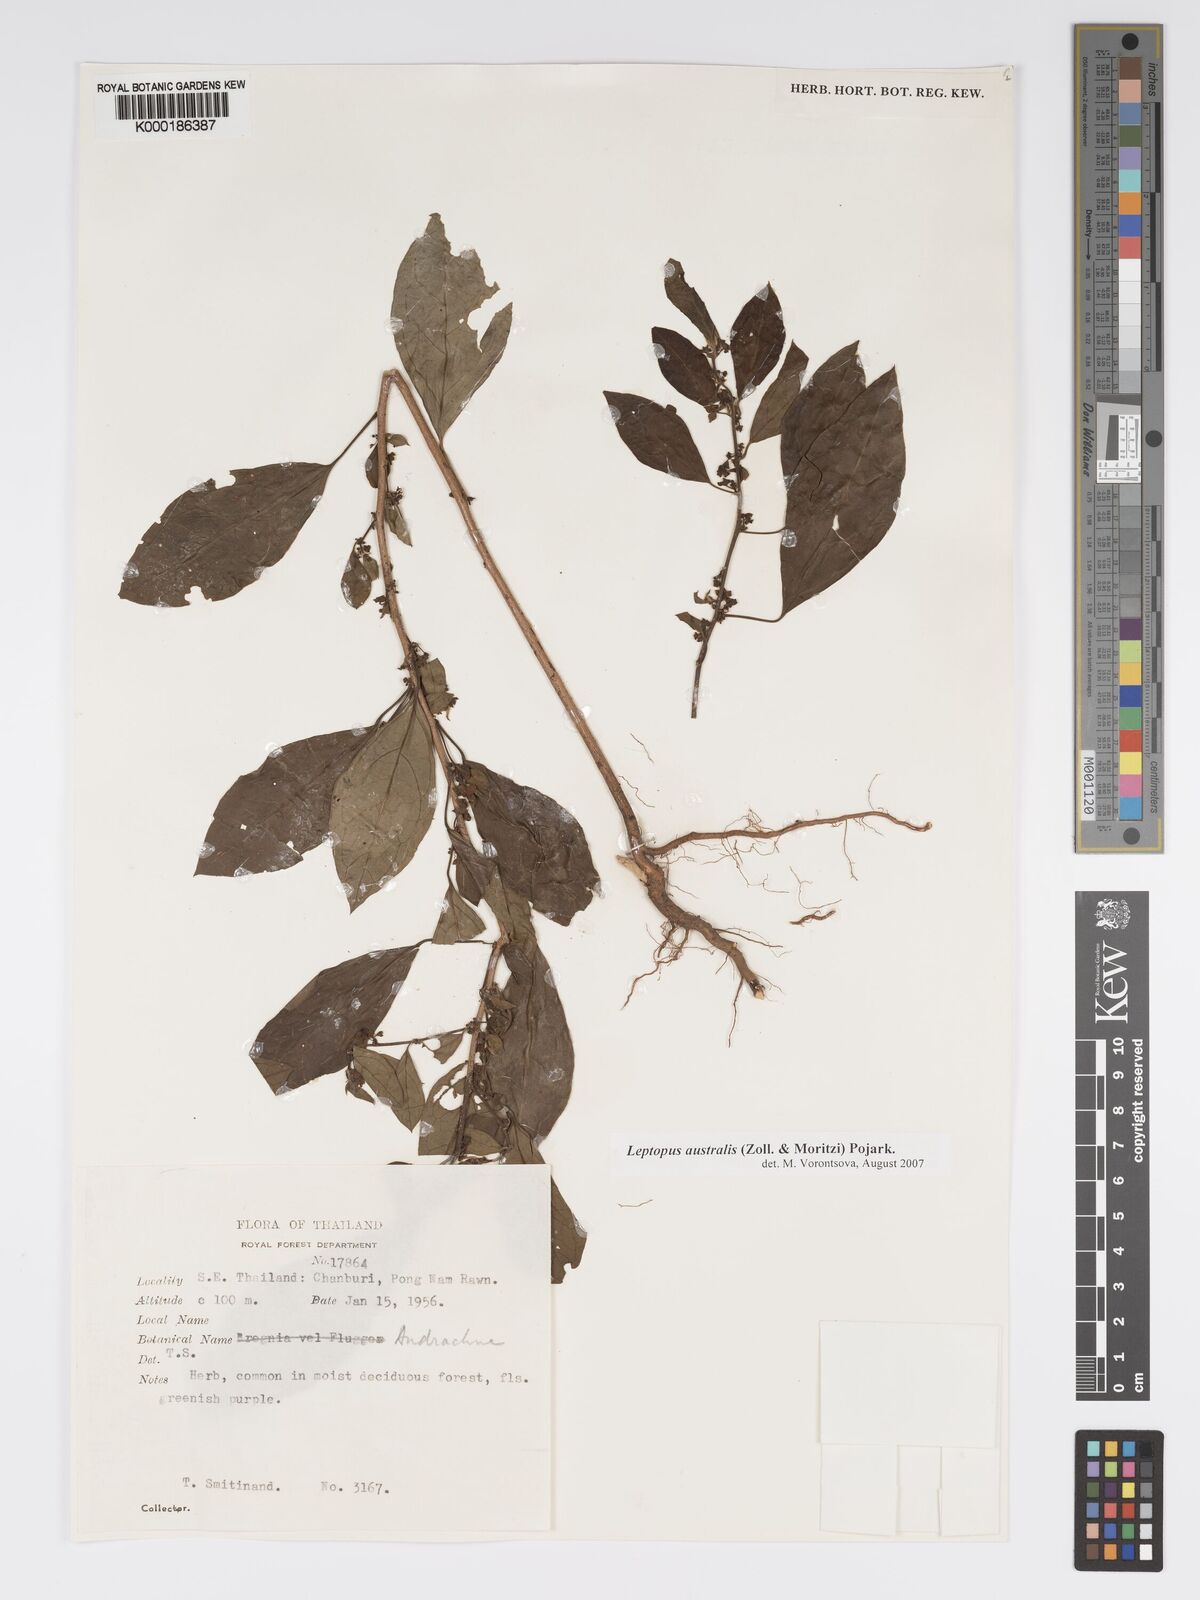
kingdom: Plantae
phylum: Tracheophyta
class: Magnoliopsida
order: Malpighiales
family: Phyllanthaceae
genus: Andrachne
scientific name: Andrachne
